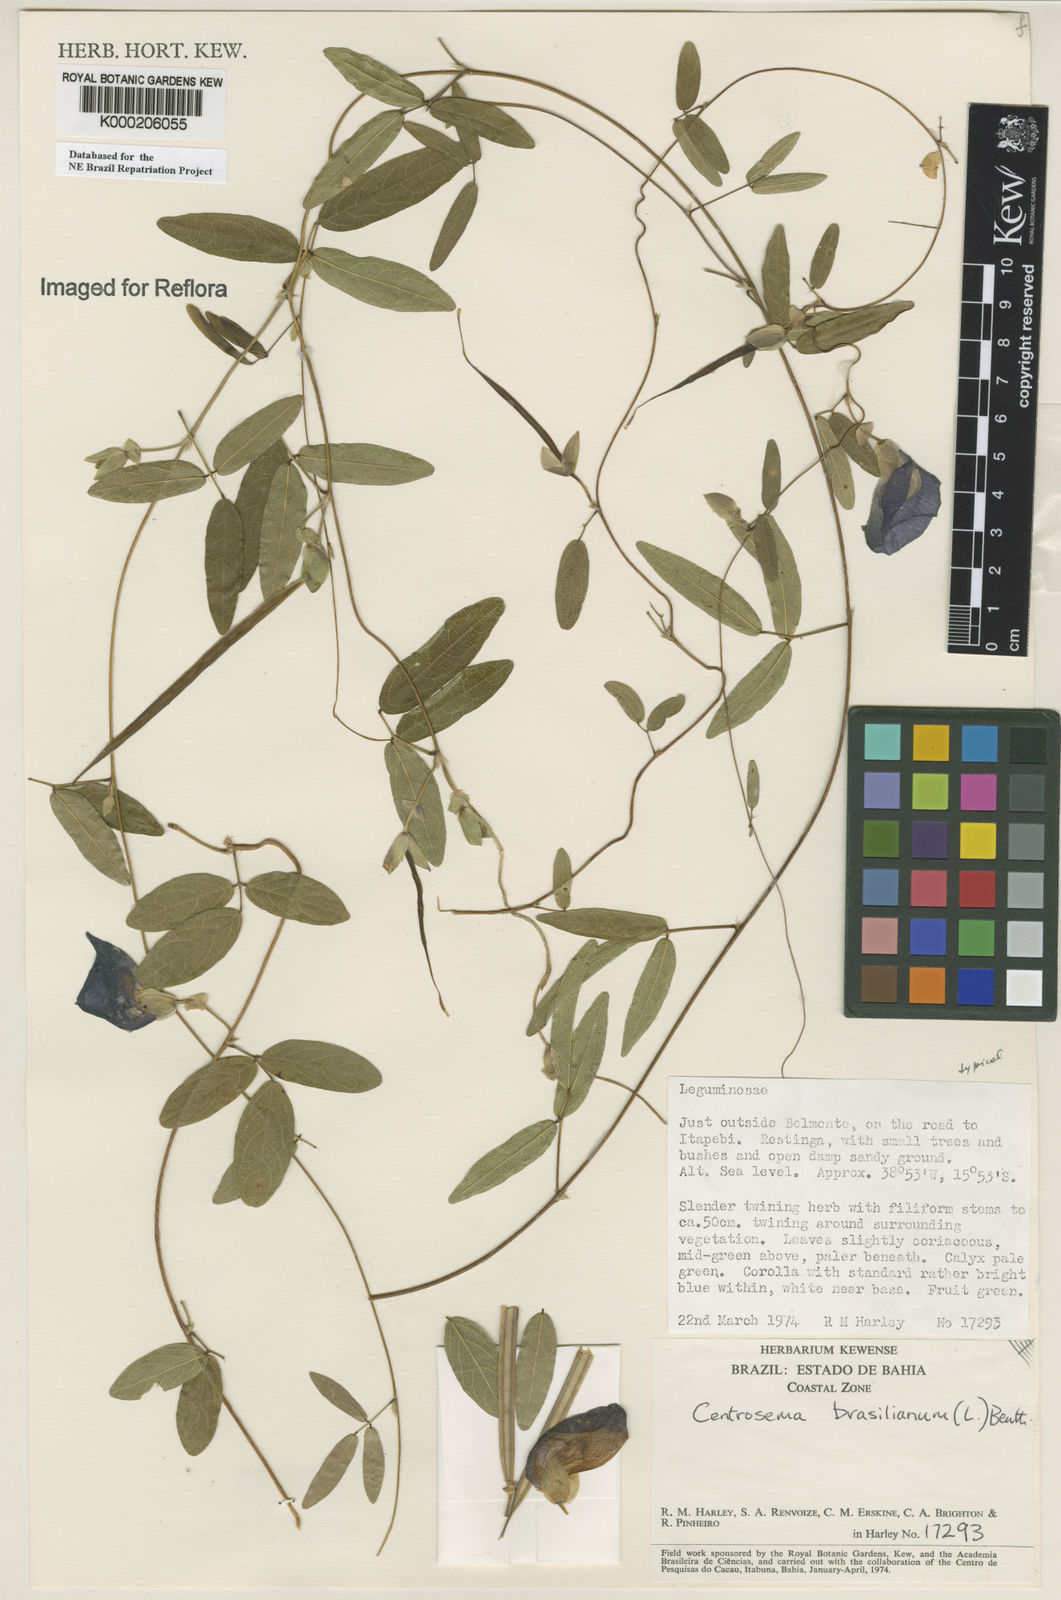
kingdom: Plantae
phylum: Tracheophyta
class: Magnoliopsida
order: Fabales
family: Fabaceae
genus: Centrosema
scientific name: Centrosema brasilianum
